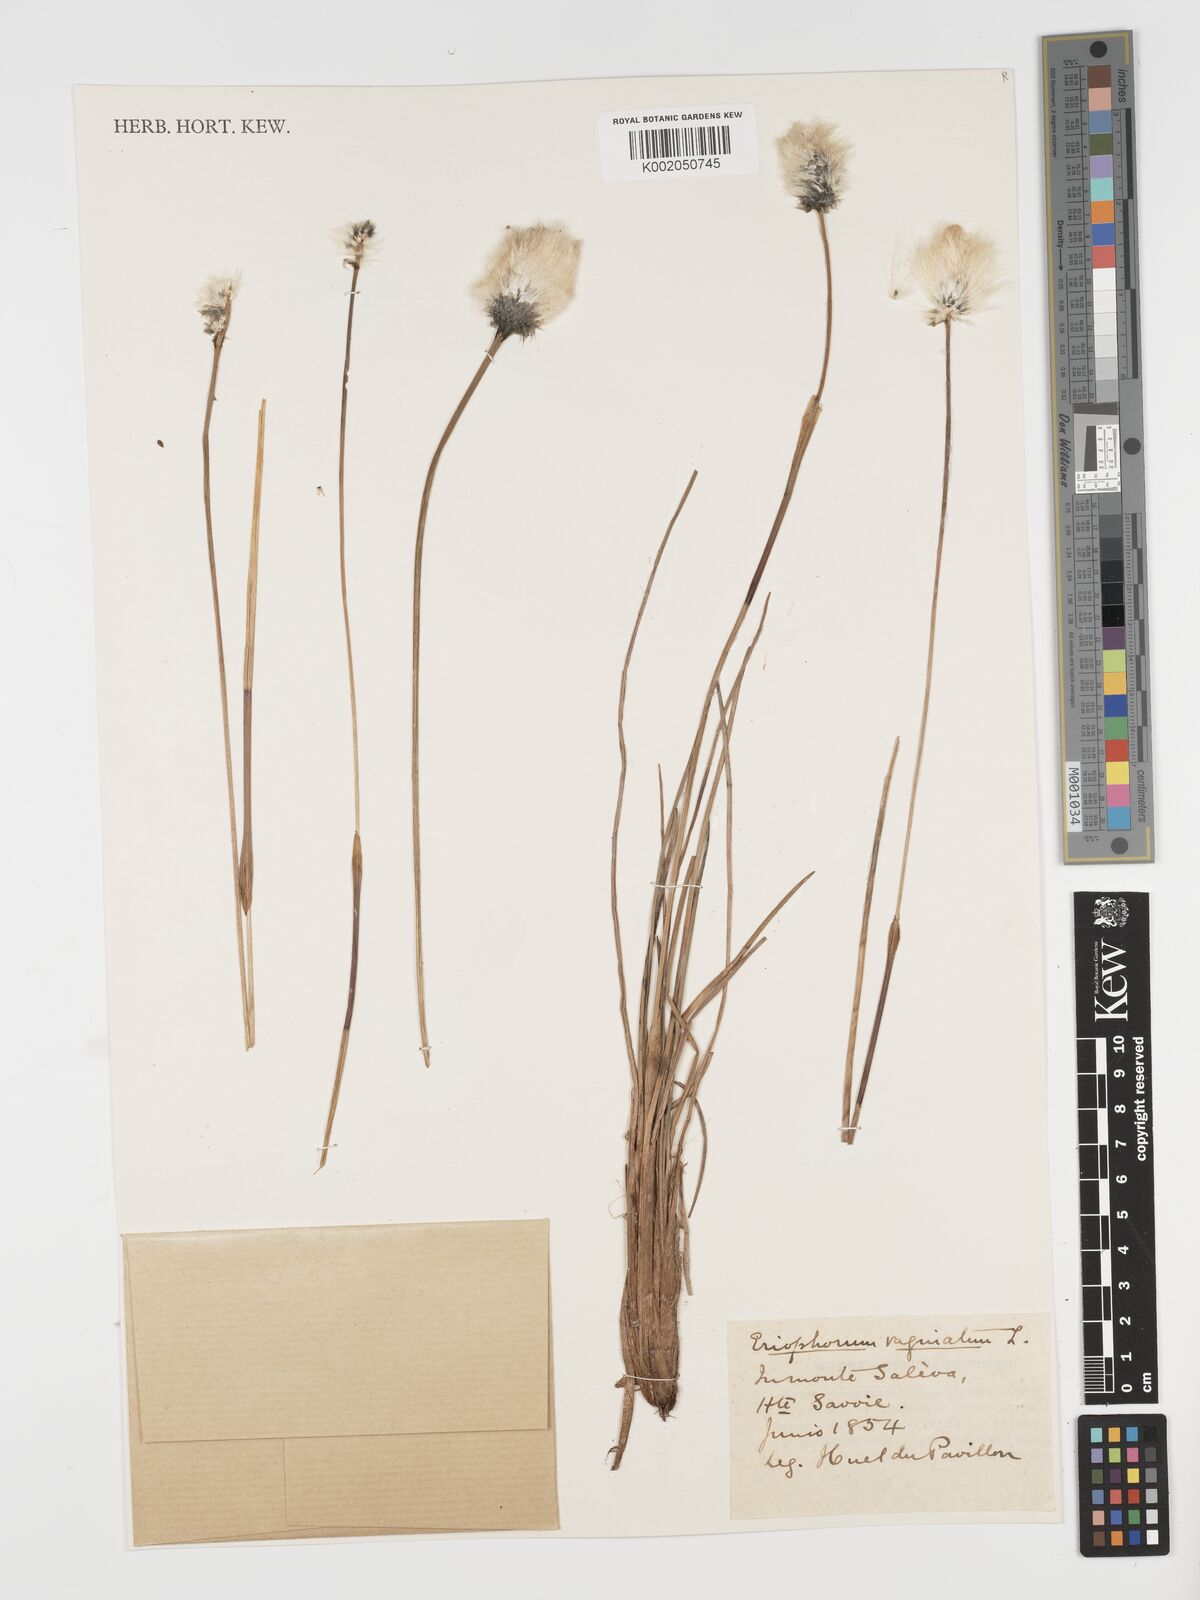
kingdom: Plantae
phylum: Tracheophyta
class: Liliopsida
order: Poales
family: Cyperaceae
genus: Eriophorum
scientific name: Eriophorum vaginatum
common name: Hare's-tail cottongrass
